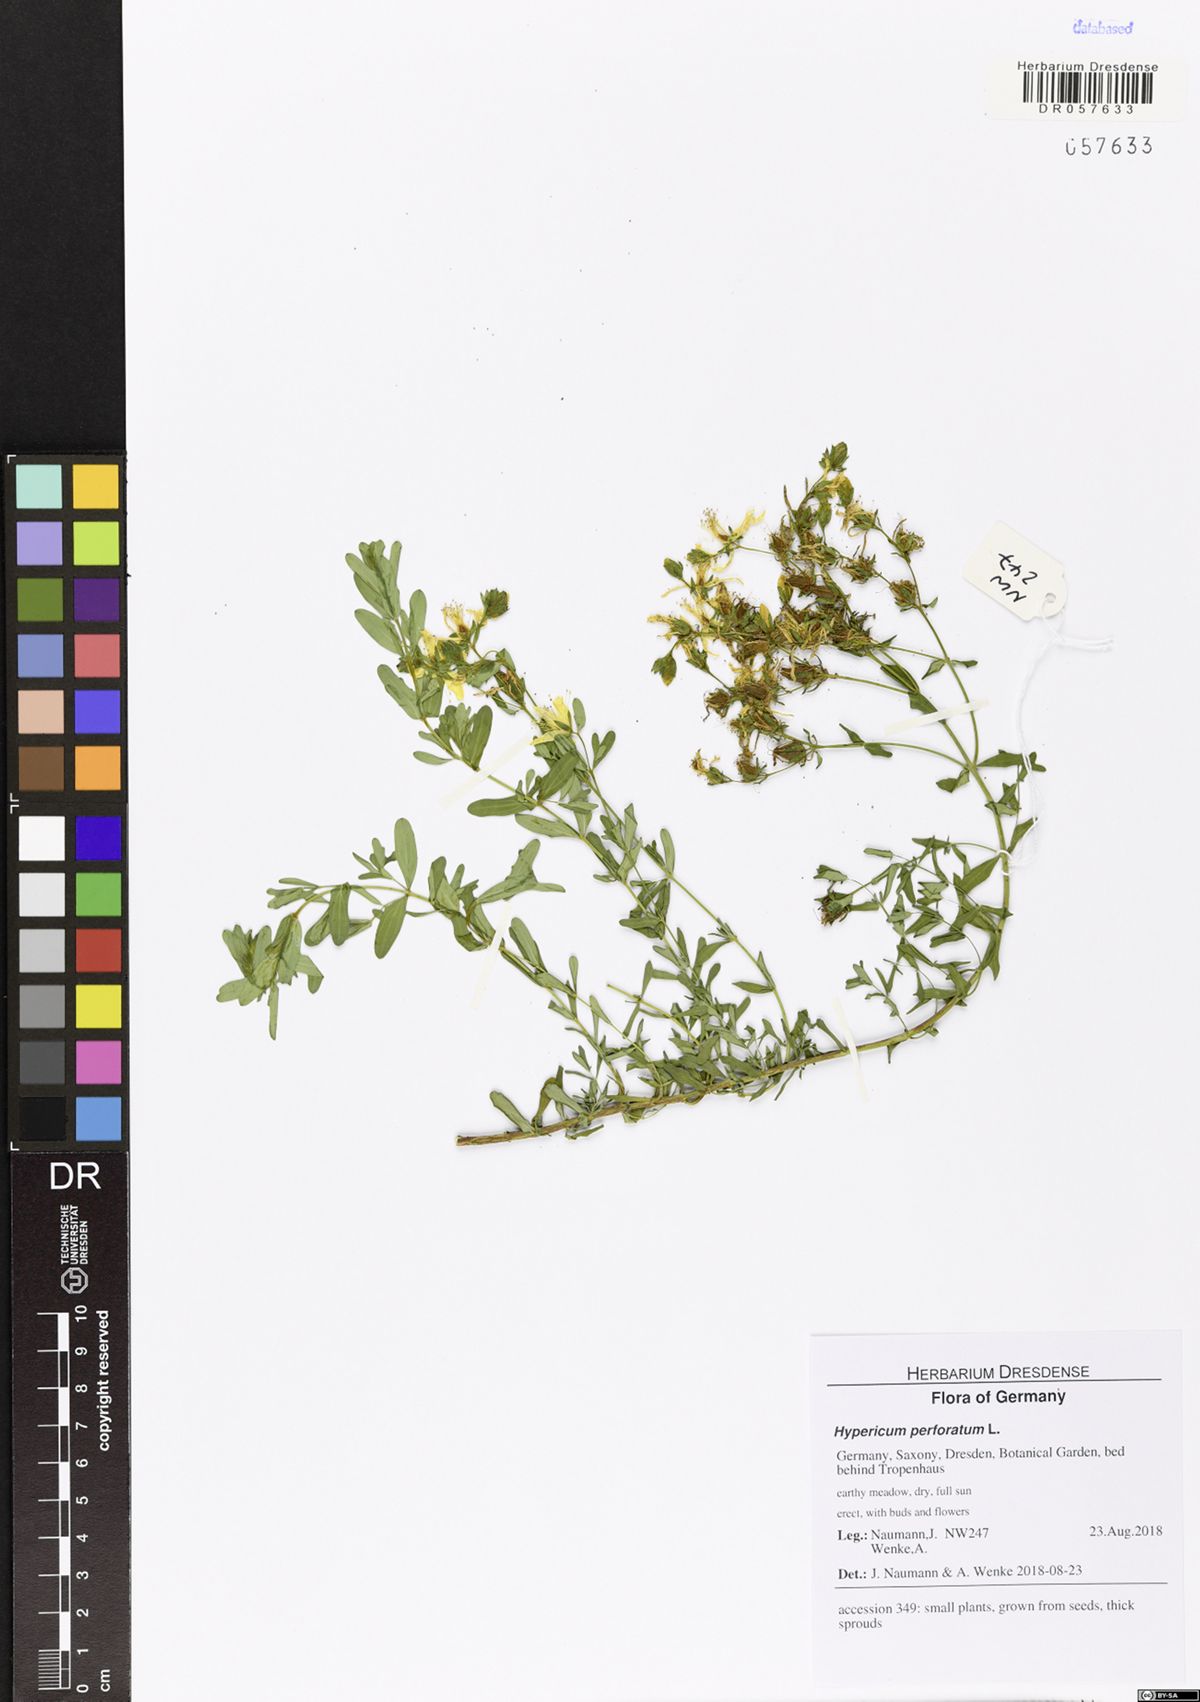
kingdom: Plantae
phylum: Tracheophyta
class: Magnoliopsida
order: Malpighiales
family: Hypericaceae
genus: Hypericum
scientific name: Hypericum perforatum
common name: Common st. johnswort
